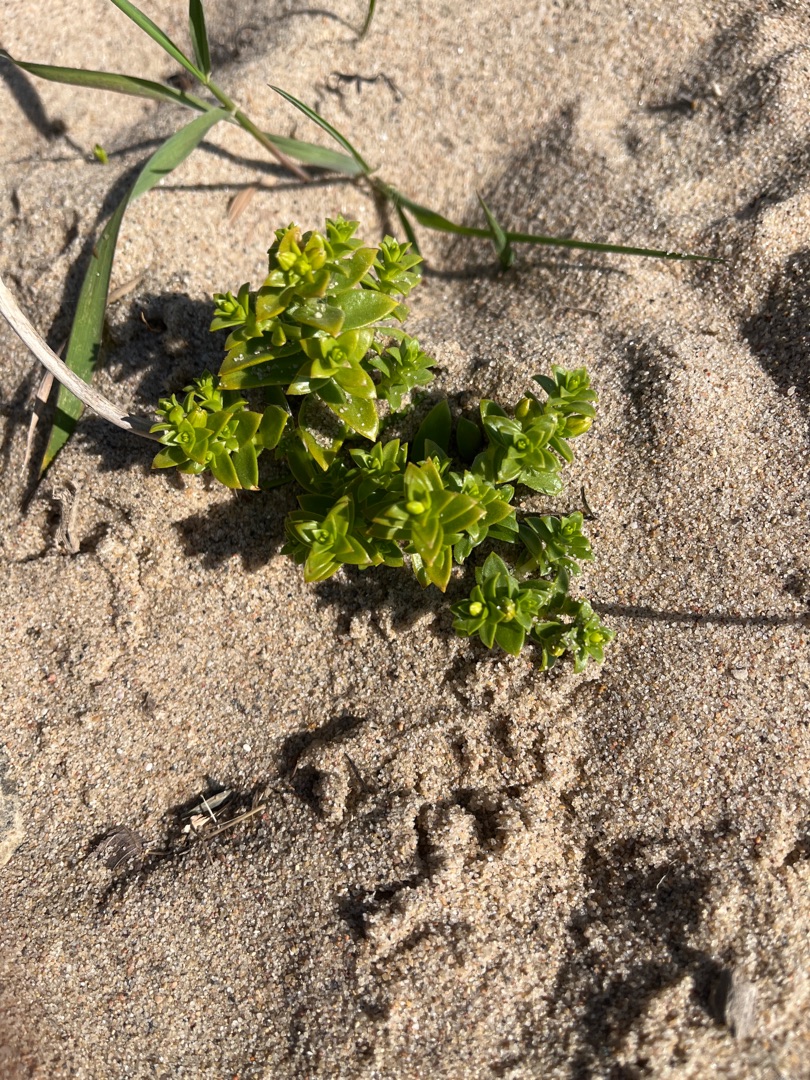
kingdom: Plantae
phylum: Tracheophyta
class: Magnoliopsida
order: Caryophyllales
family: Caryophyllaceae
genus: Honckenya
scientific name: Honckenya peploides
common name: Strandarve
